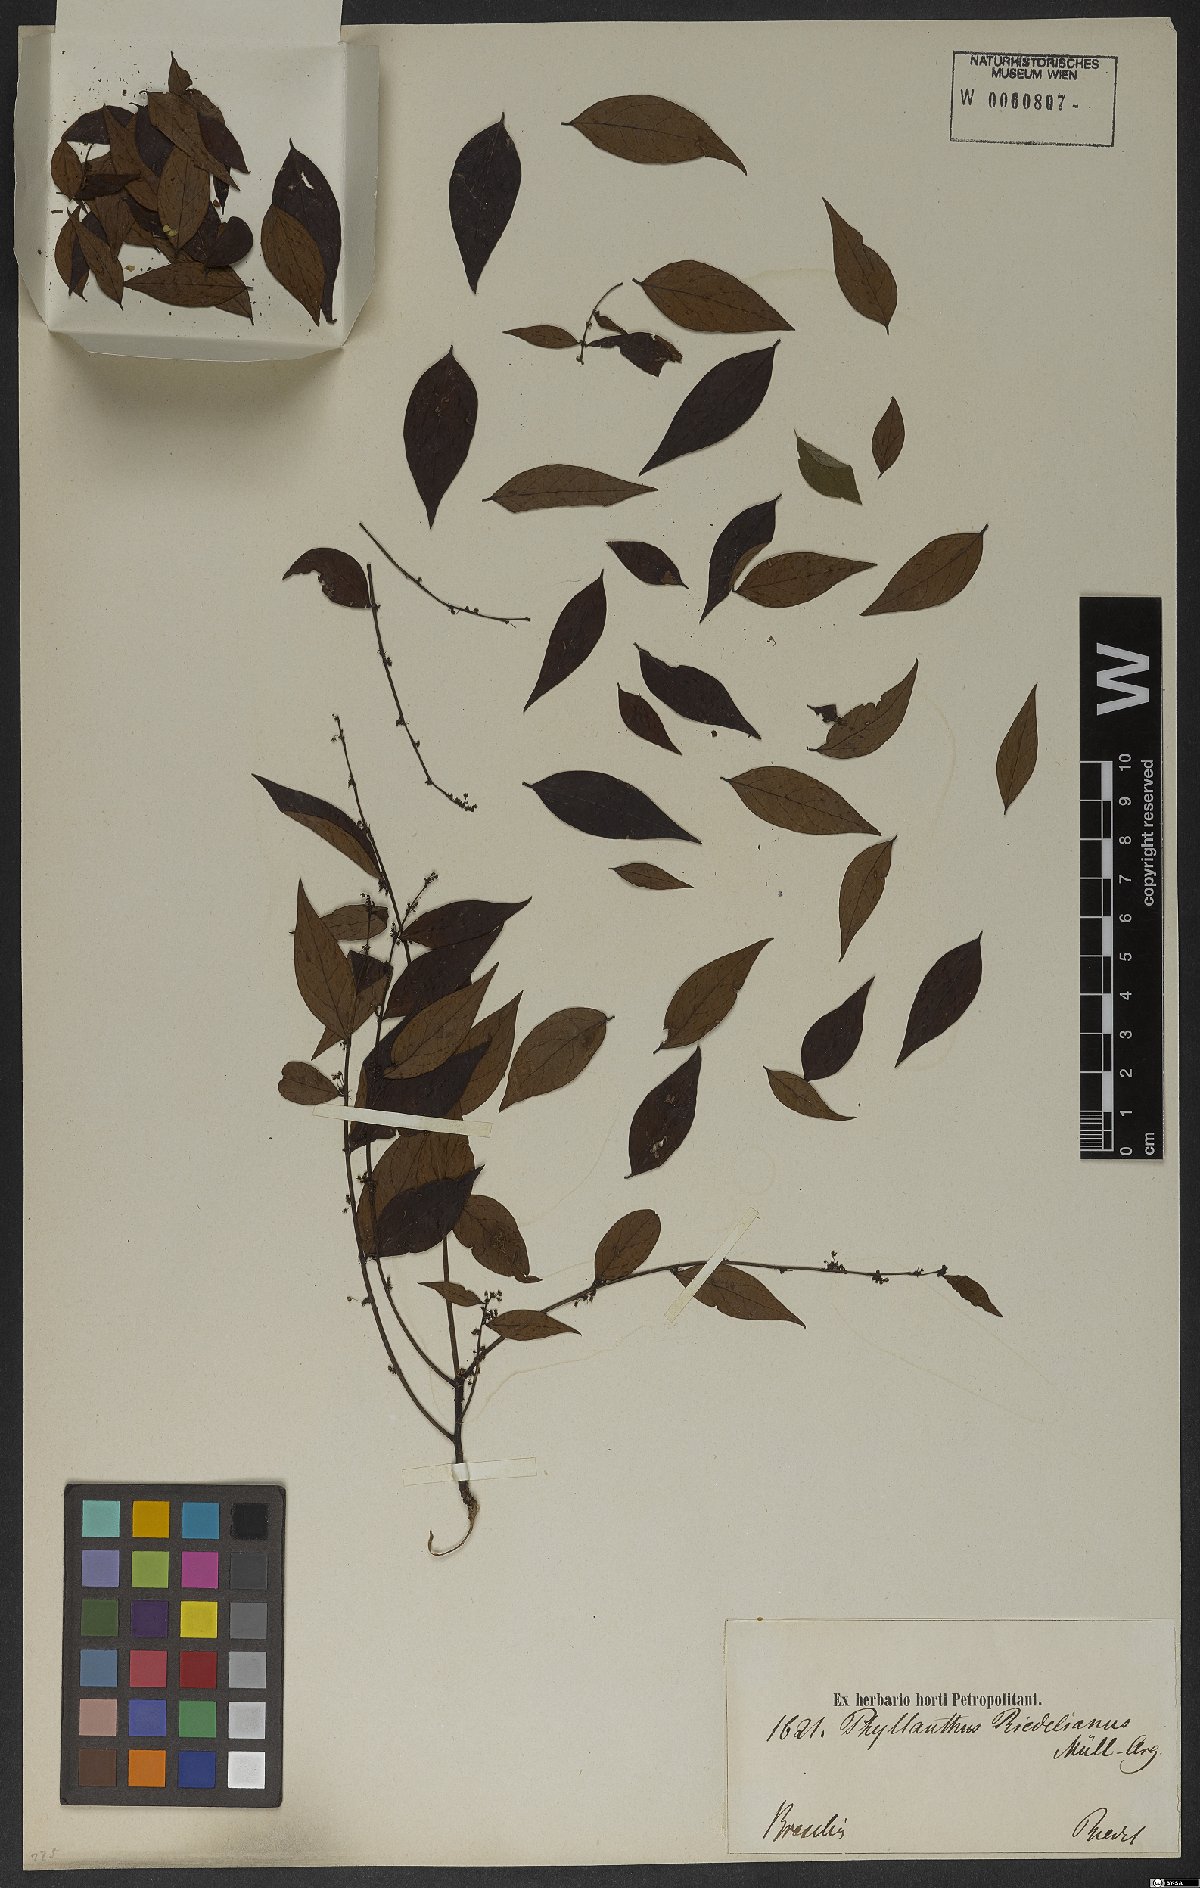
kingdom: Plantae
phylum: Tracheophyta
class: Magnoliopsida
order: Malpighiales
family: Phyllanthaceae
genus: Phyllanthus
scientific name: Phyllanthus riedelianus
